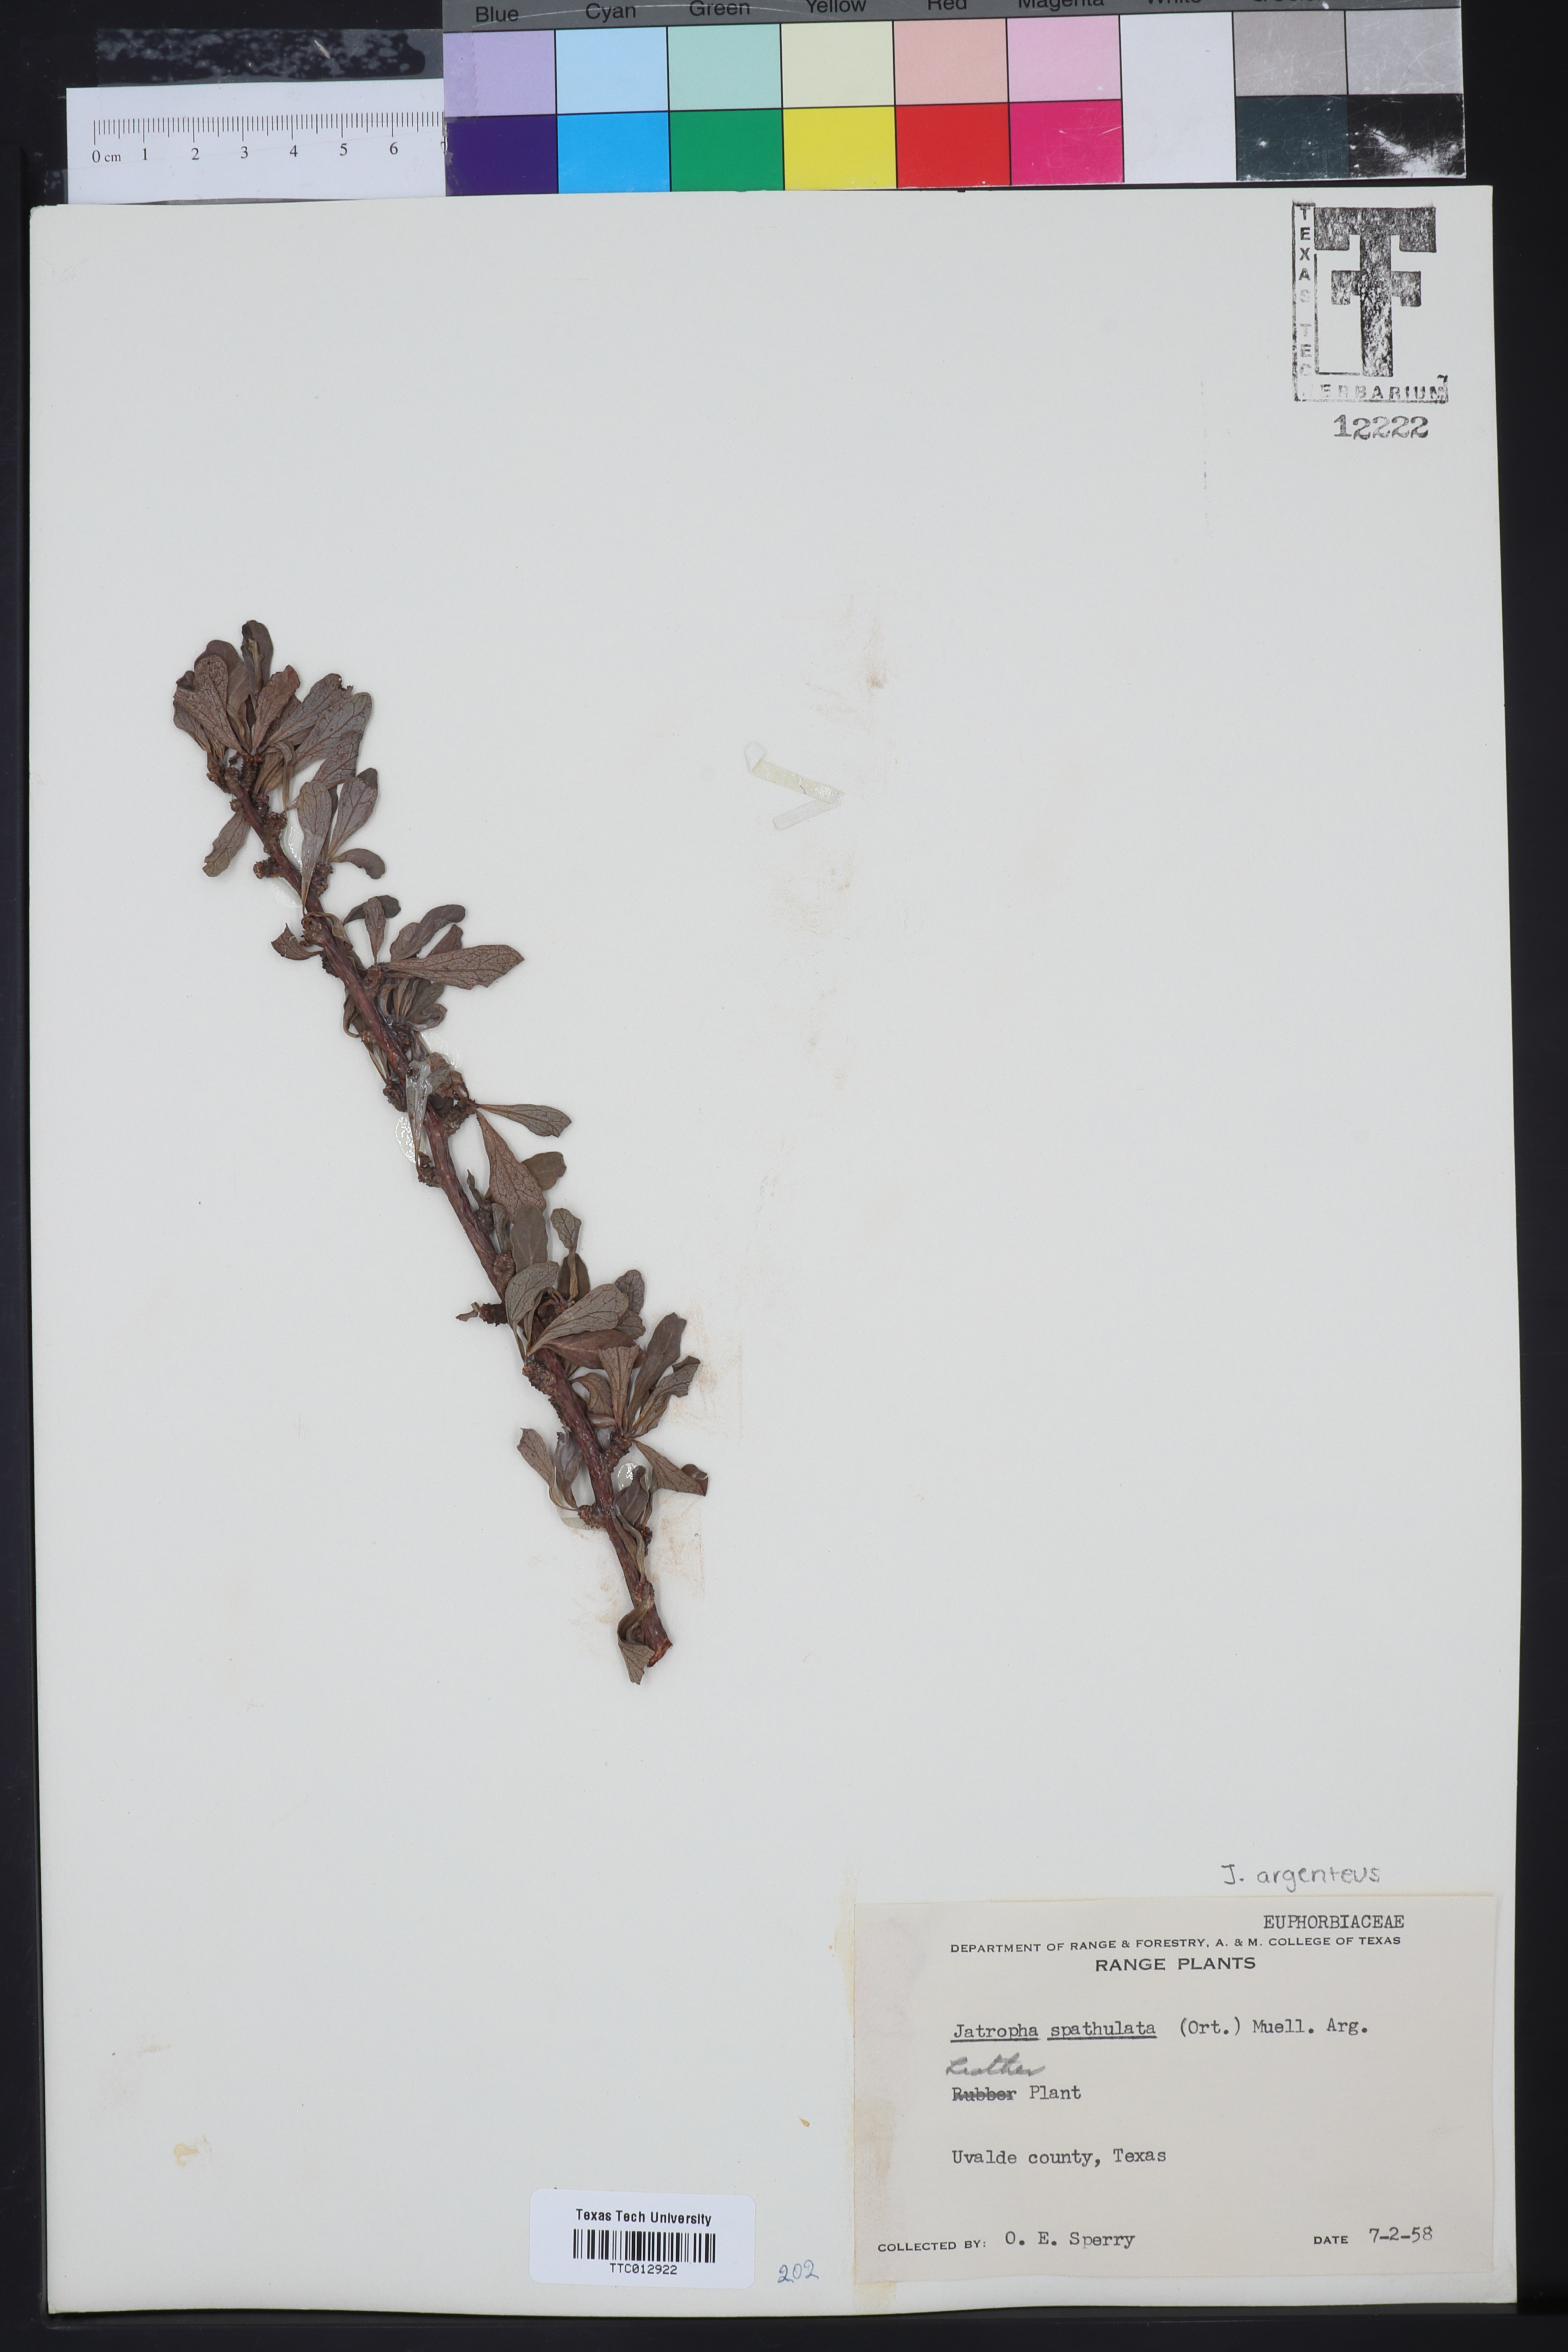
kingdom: Plantae
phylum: Tracheophyta
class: Magnoliopsida
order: Malpighiales
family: Euphorbiaceae
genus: Jatropha
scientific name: Jatropha dioica
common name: Leatherstem
